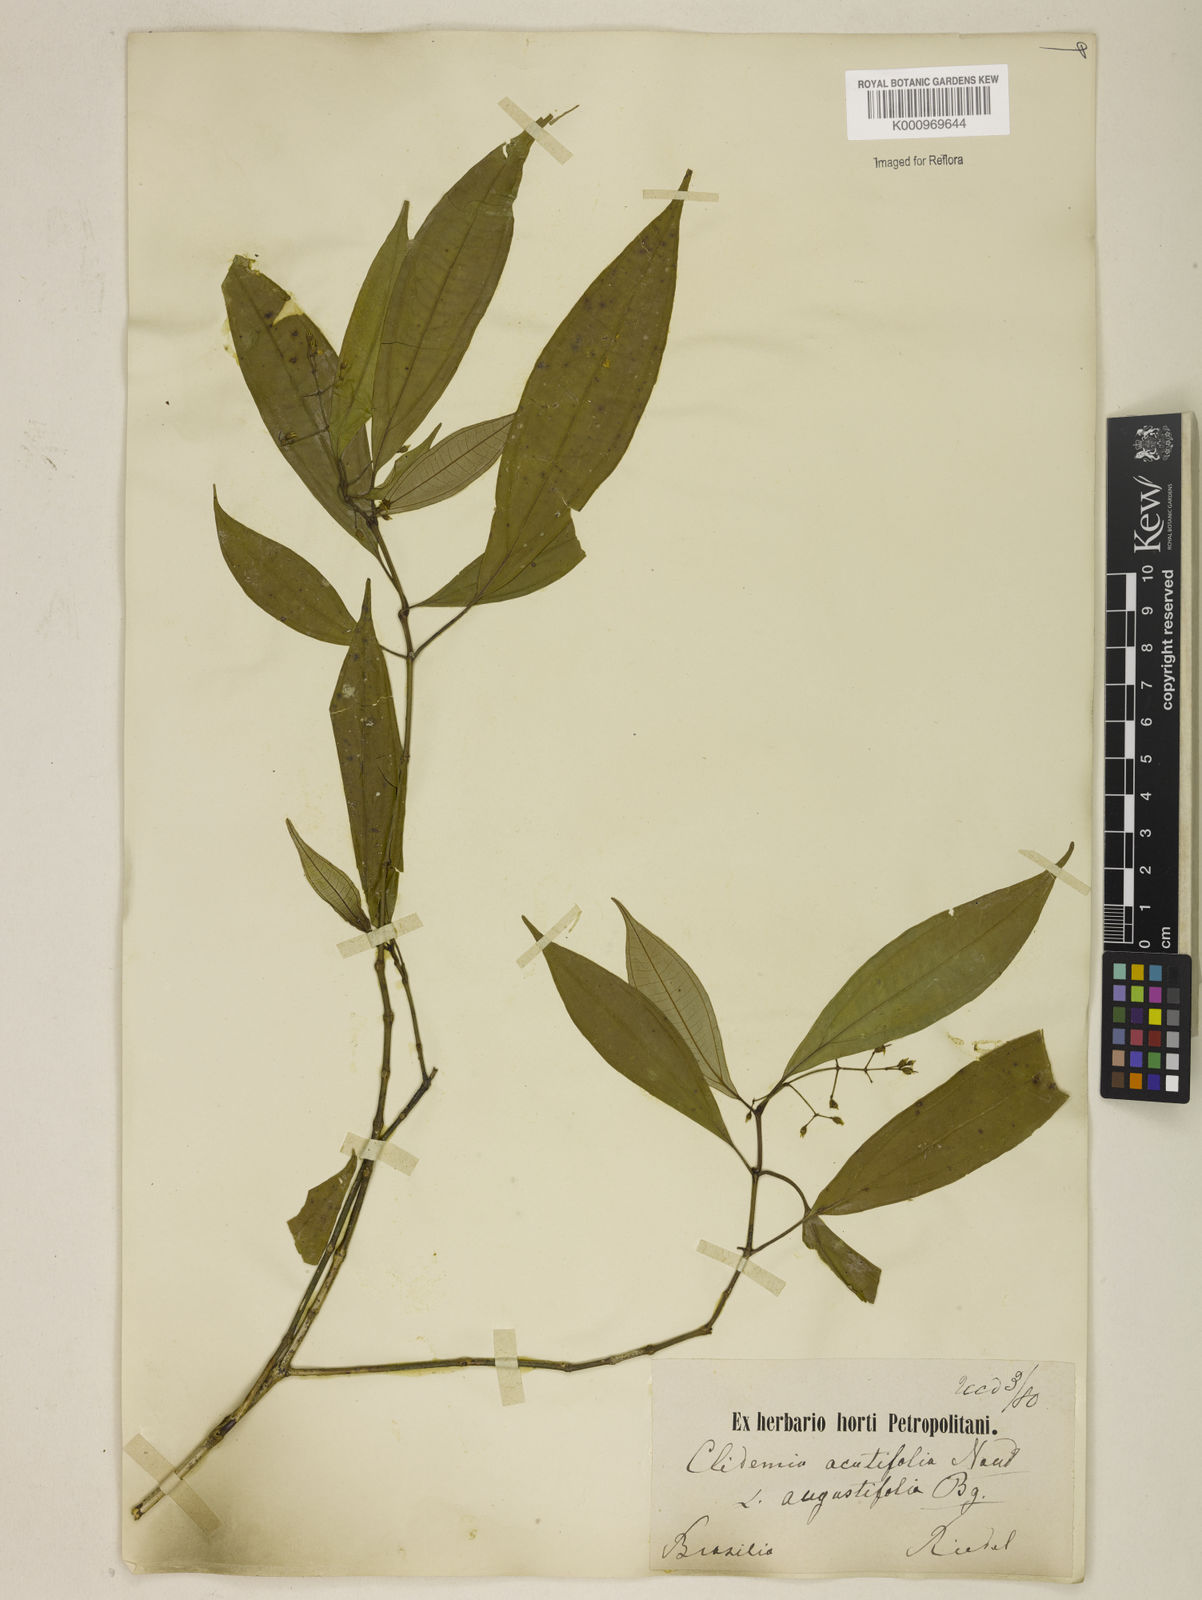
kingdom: Plantae
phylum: Tracheophyta
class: Magnoliopsida
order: Myrtales
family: Melastomataceae
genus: Miconia
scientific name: Miconia acutiflora
